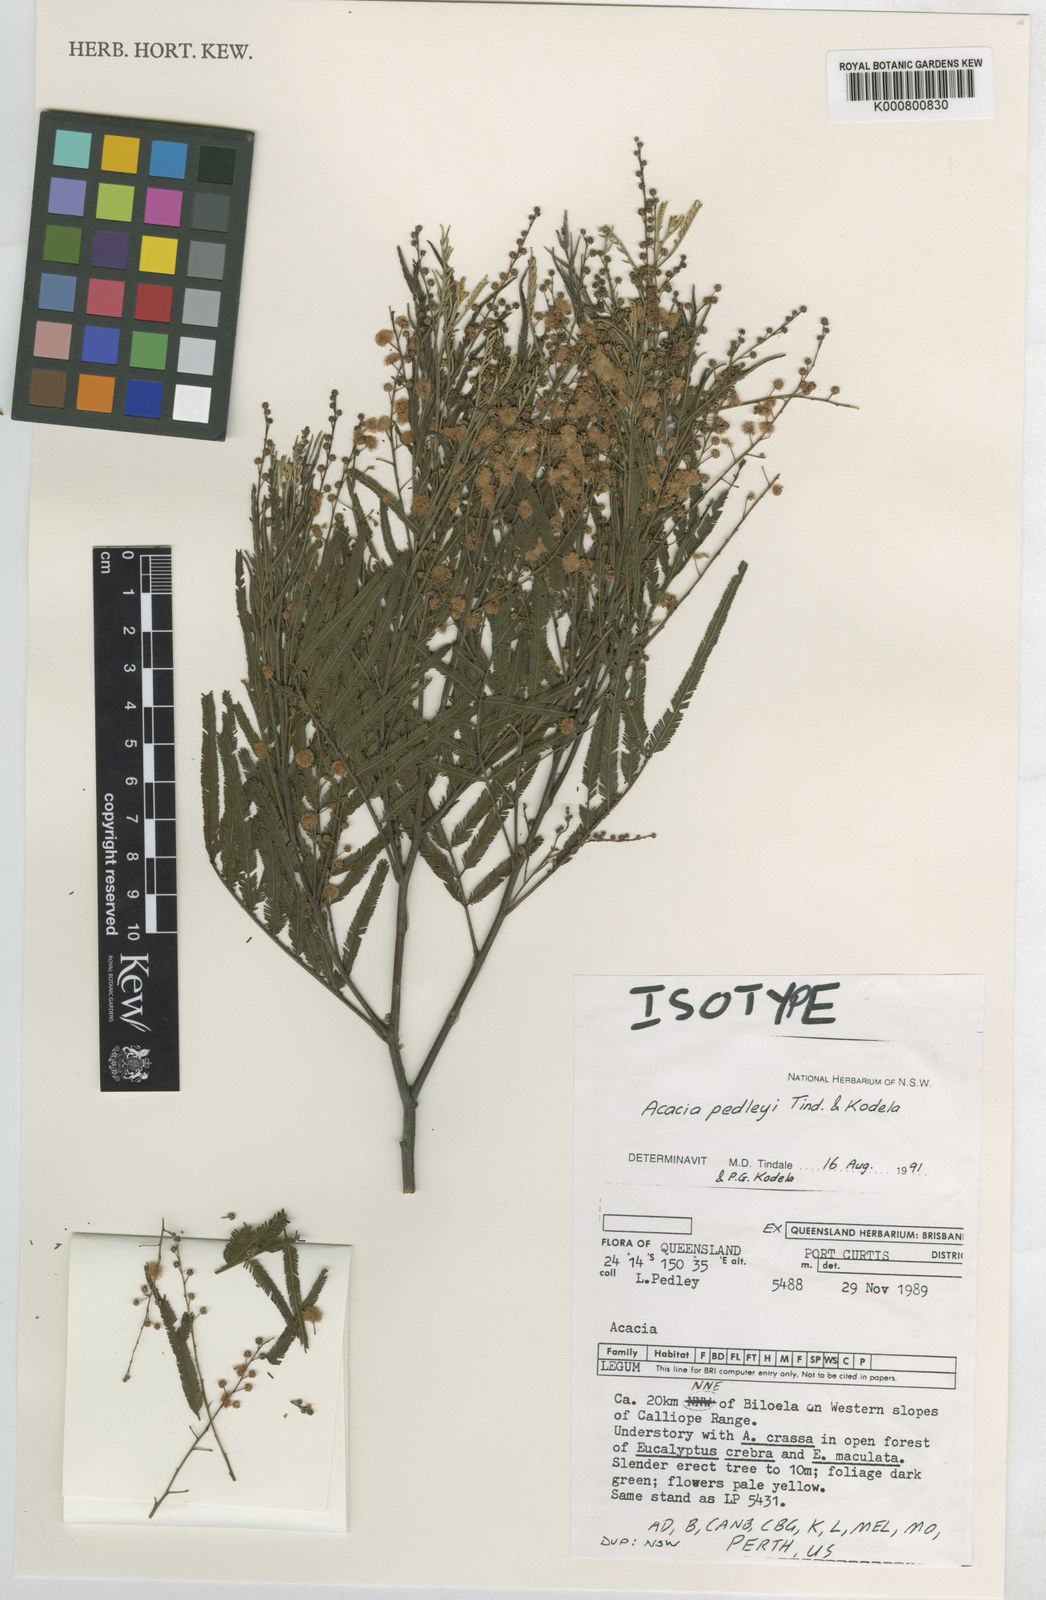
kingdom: Plantae
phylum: Tracheophyta
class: Magnoliopsida
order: Fabales
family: Fabaceae
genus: Acacia
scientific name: Acacia pedleyi
